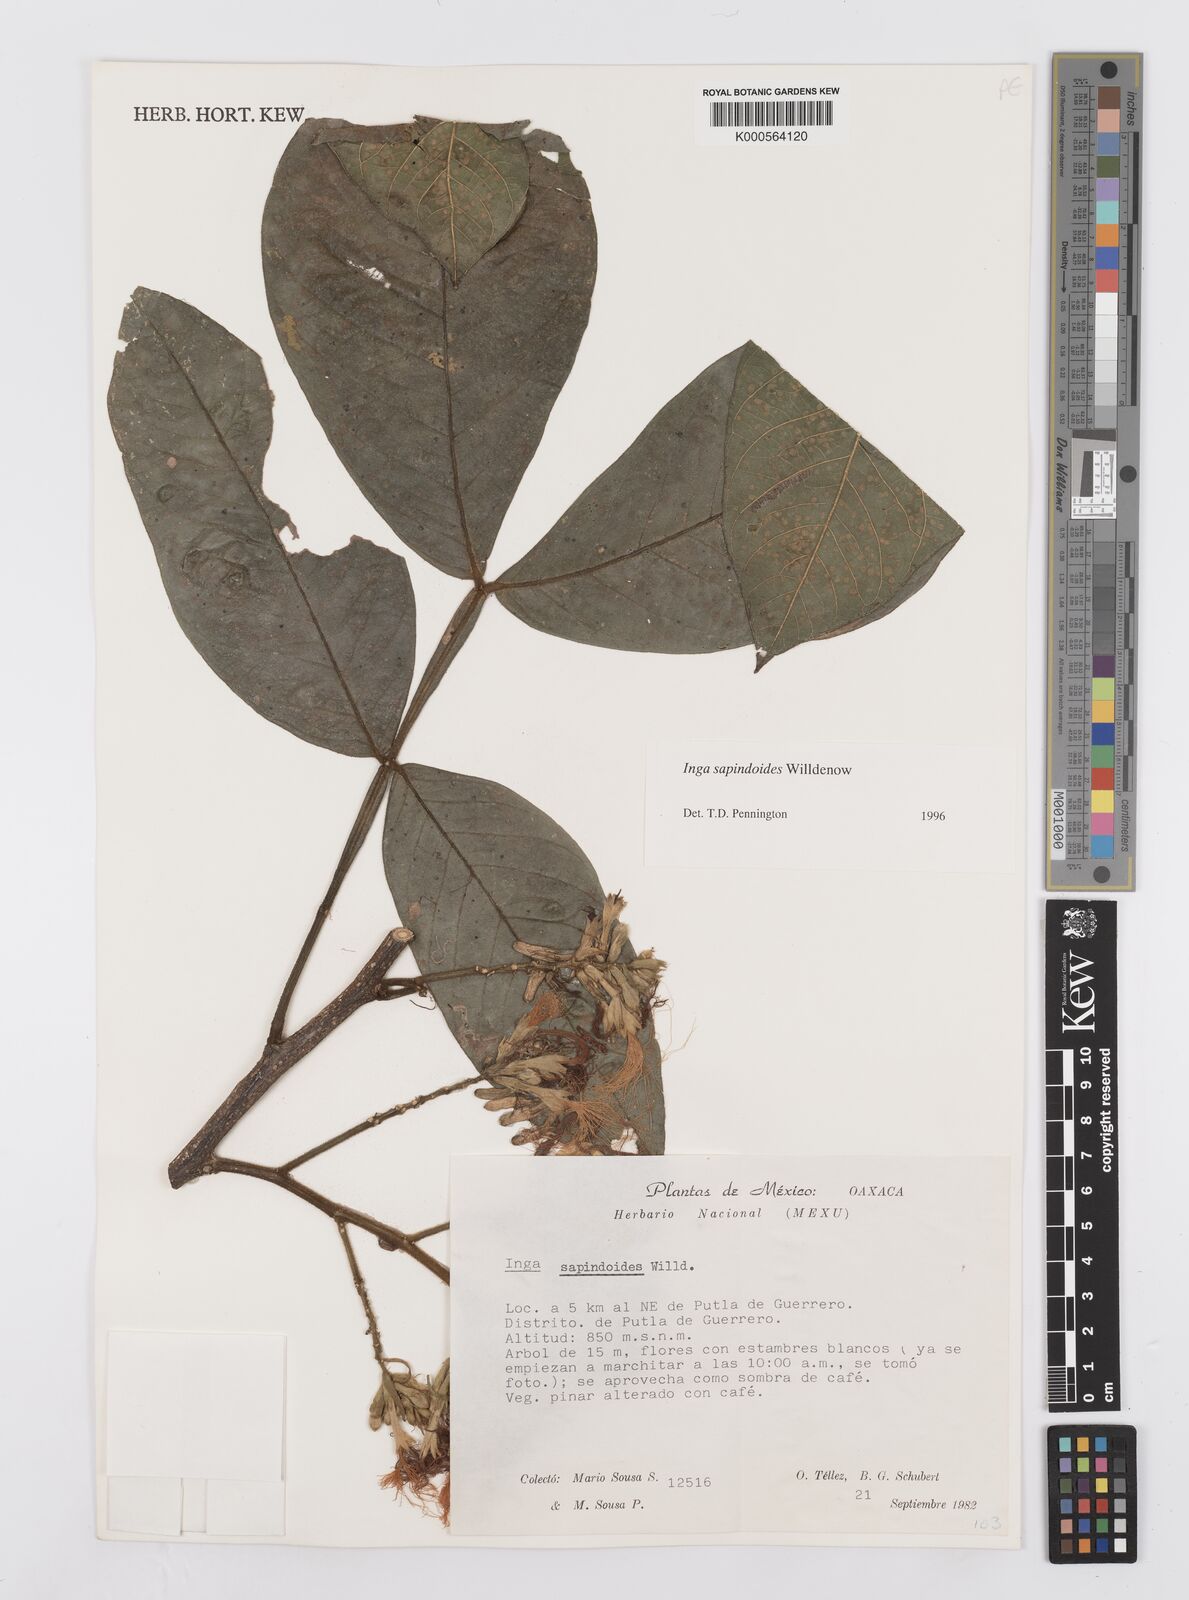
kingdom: Plantae
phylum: Tracheophyta
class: Magnoliopsida
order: Fabales
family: Fabaceae
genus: Inga
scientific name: Inga sapindoides
